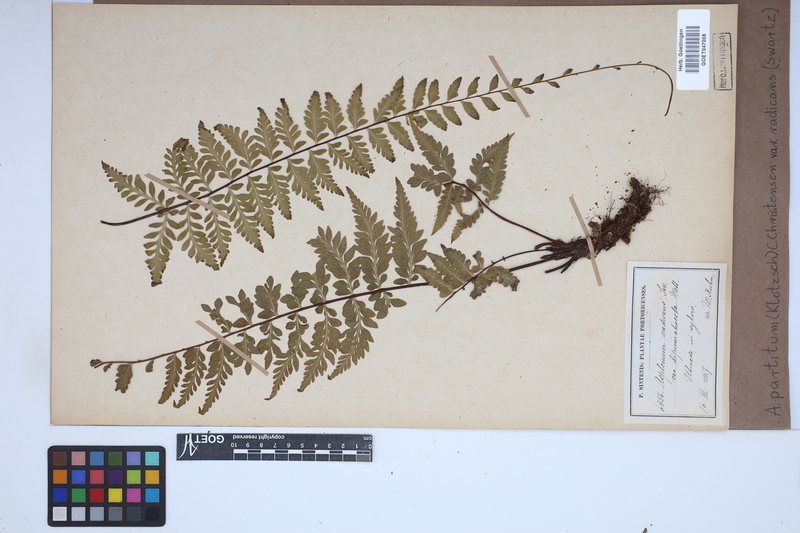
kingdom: Plantae
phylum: Tracheophyta
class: Polypodiopsida
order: Polypodiales
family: Aspleniaceae
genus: Asplenium
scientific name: Asplenium flabellulatum
